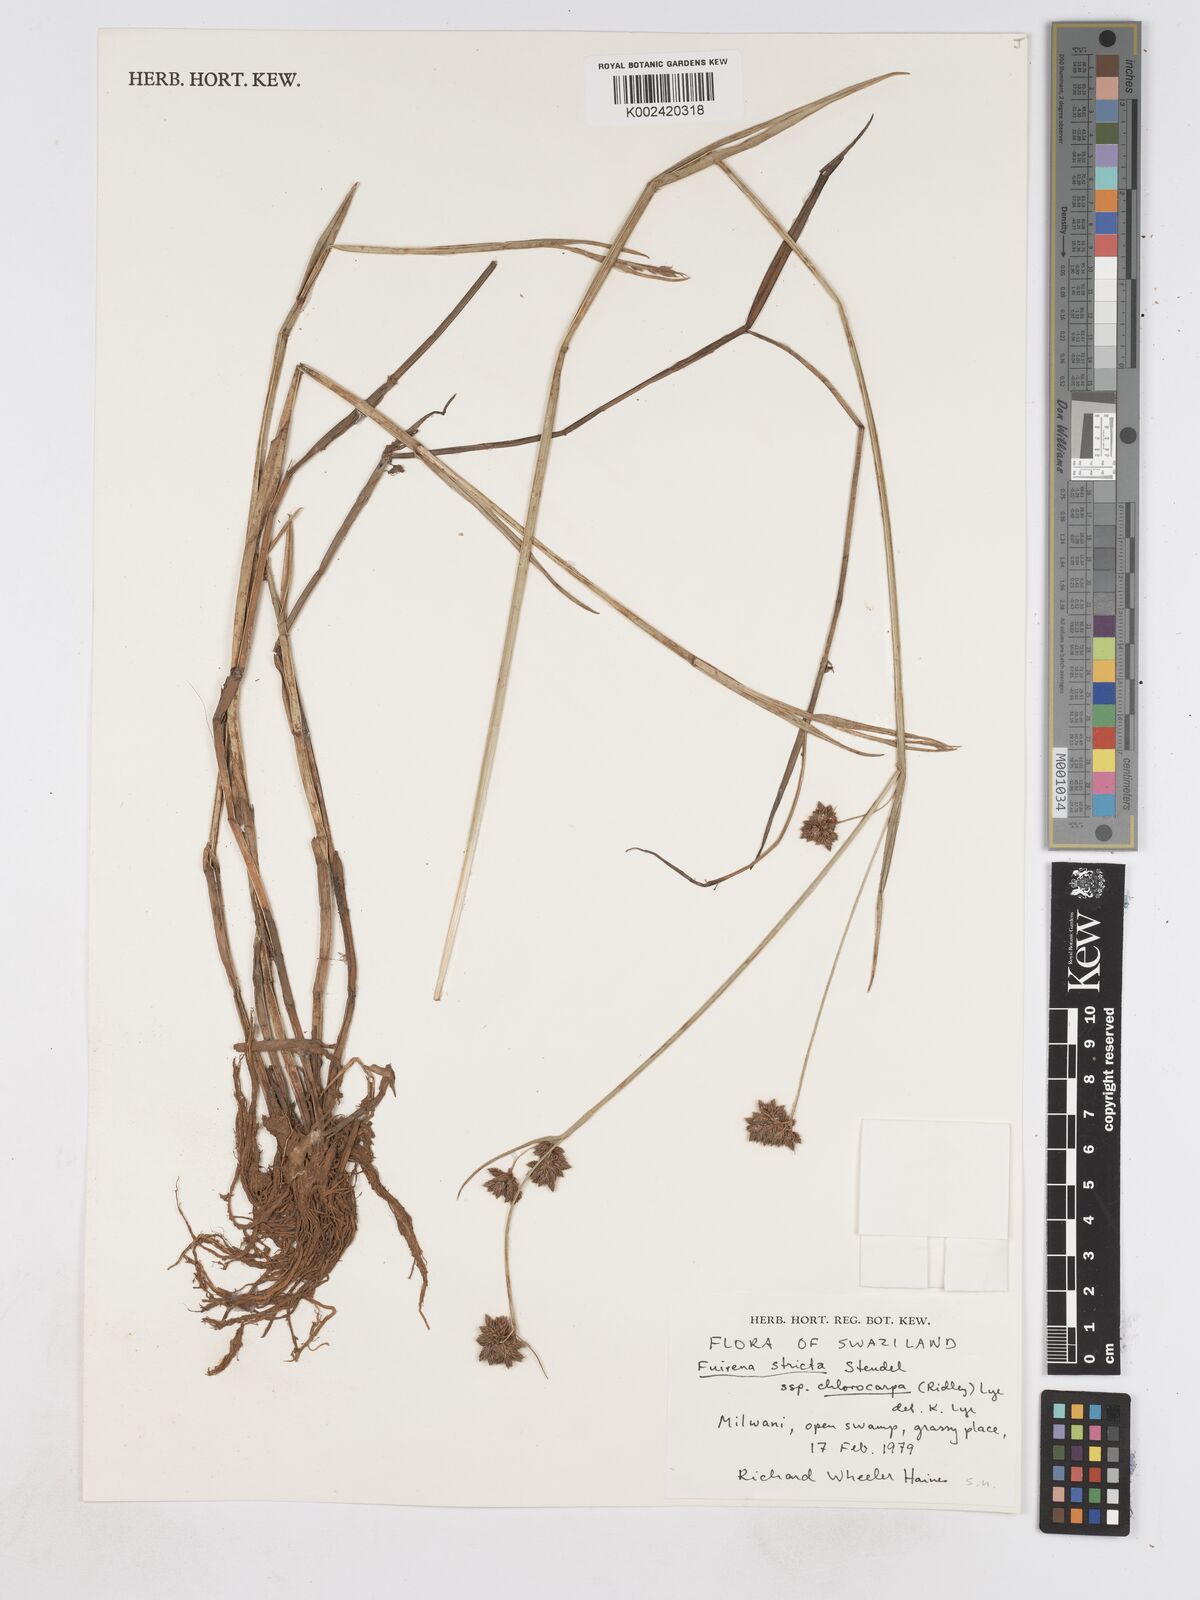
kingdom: Plantae
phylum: Tracheophyta
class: Liliopsida
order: Poales
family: Cyperaceae
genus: Fuirena
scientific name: Fuirena stricta
